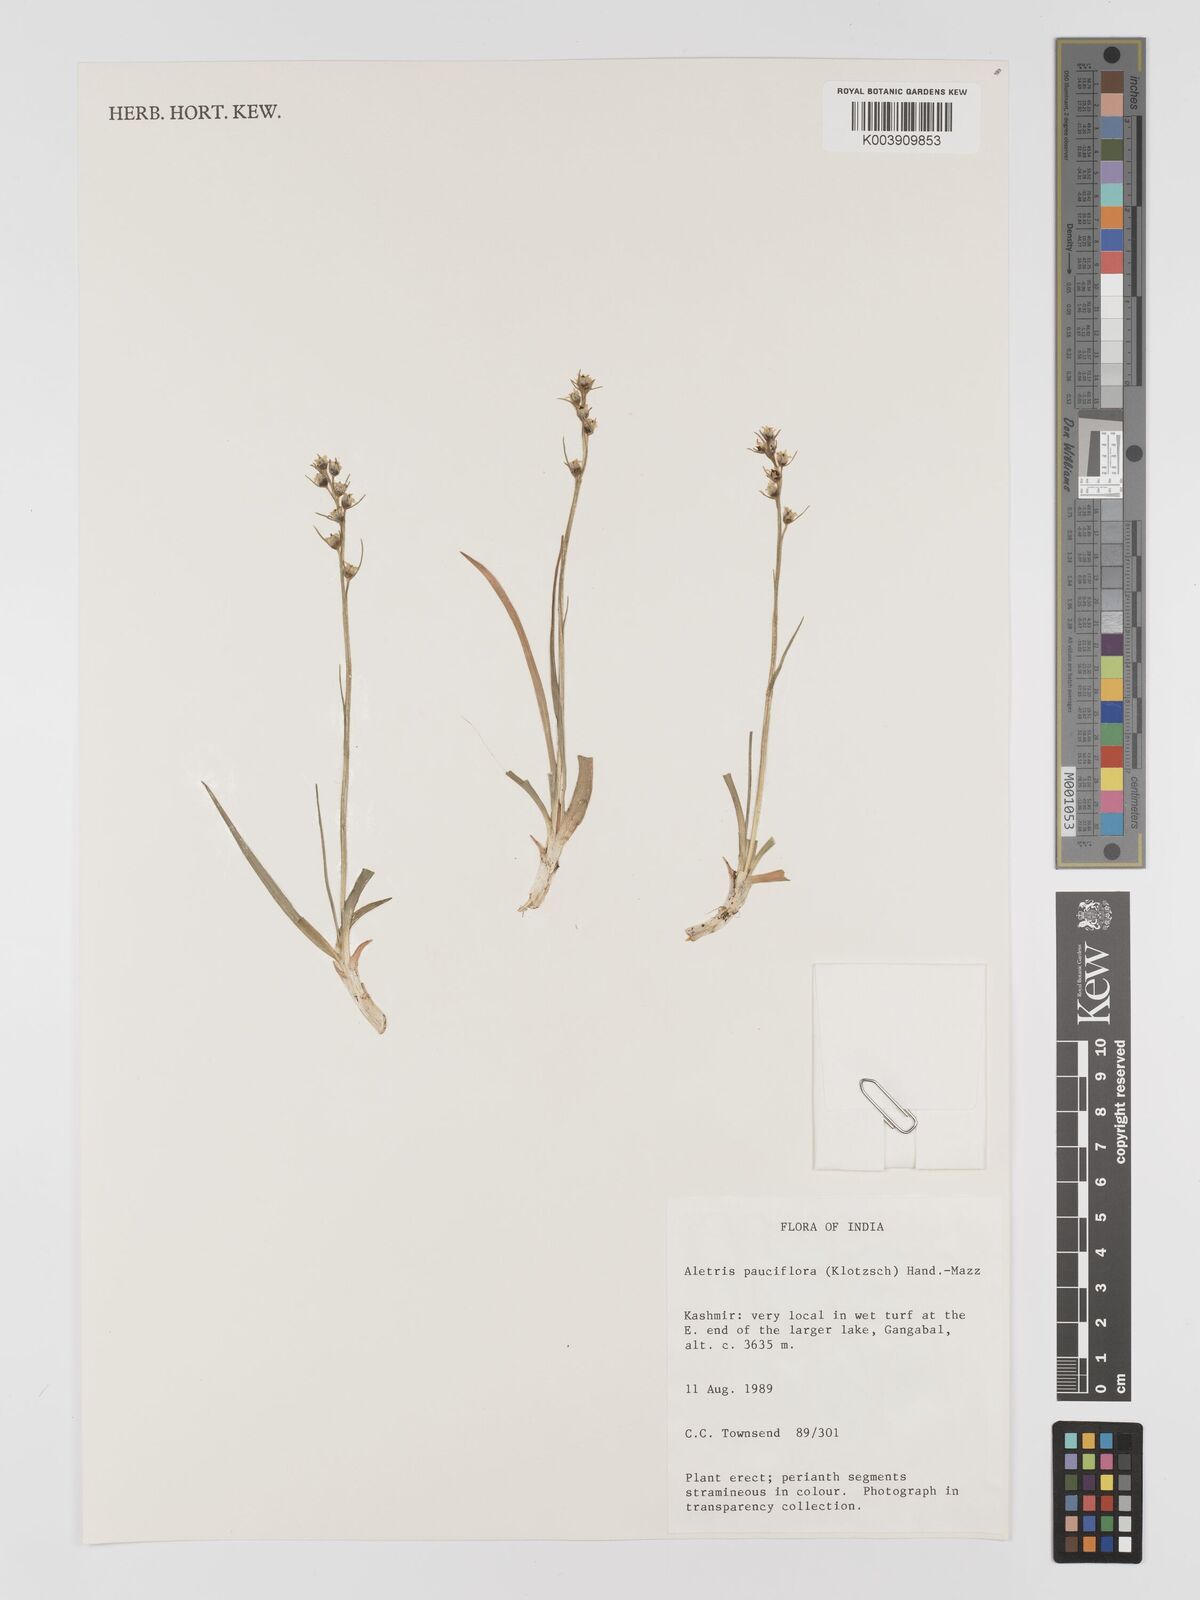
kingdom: Plantae
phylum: Tracheophyta
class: Liliopsida
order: Dioscoreales
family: Nartheciaceae
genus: Aletris
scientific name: Aletris pauciflora
